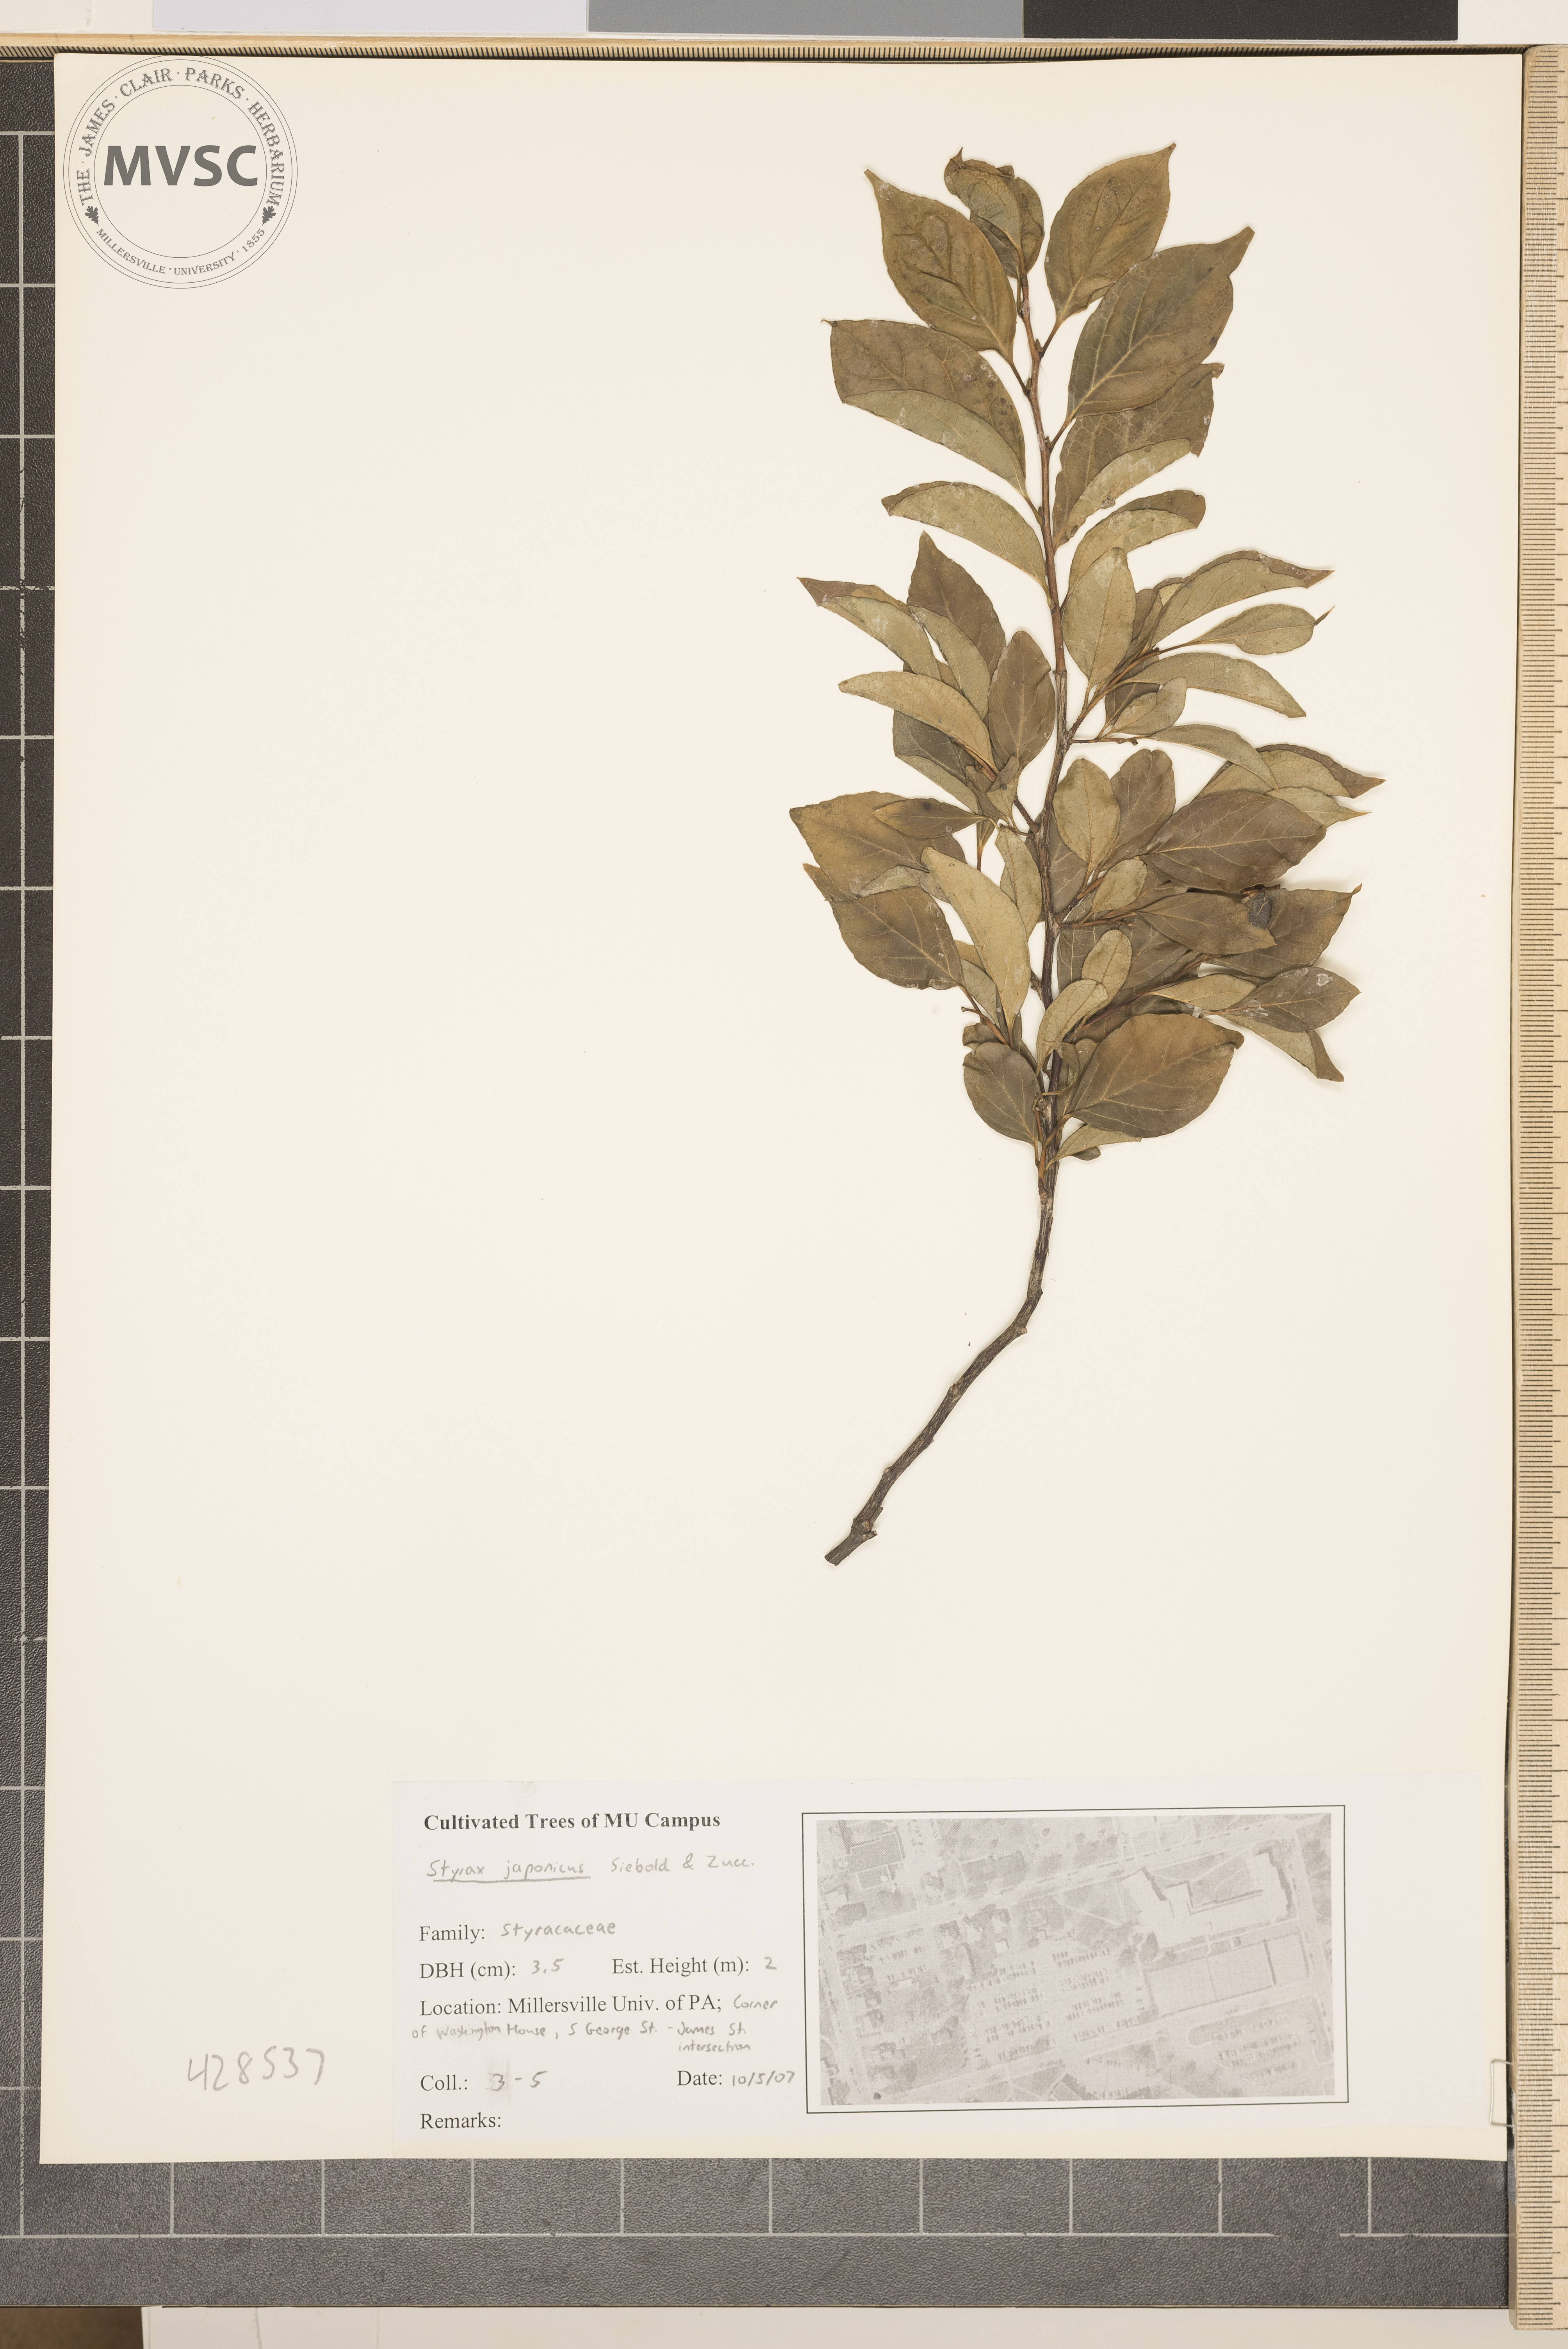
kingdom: Plantae
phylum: Tracheophyta
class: Magnoliopsida
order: Ericales
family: Styracaceae
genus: Styrax
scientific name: Styrax japonicus
